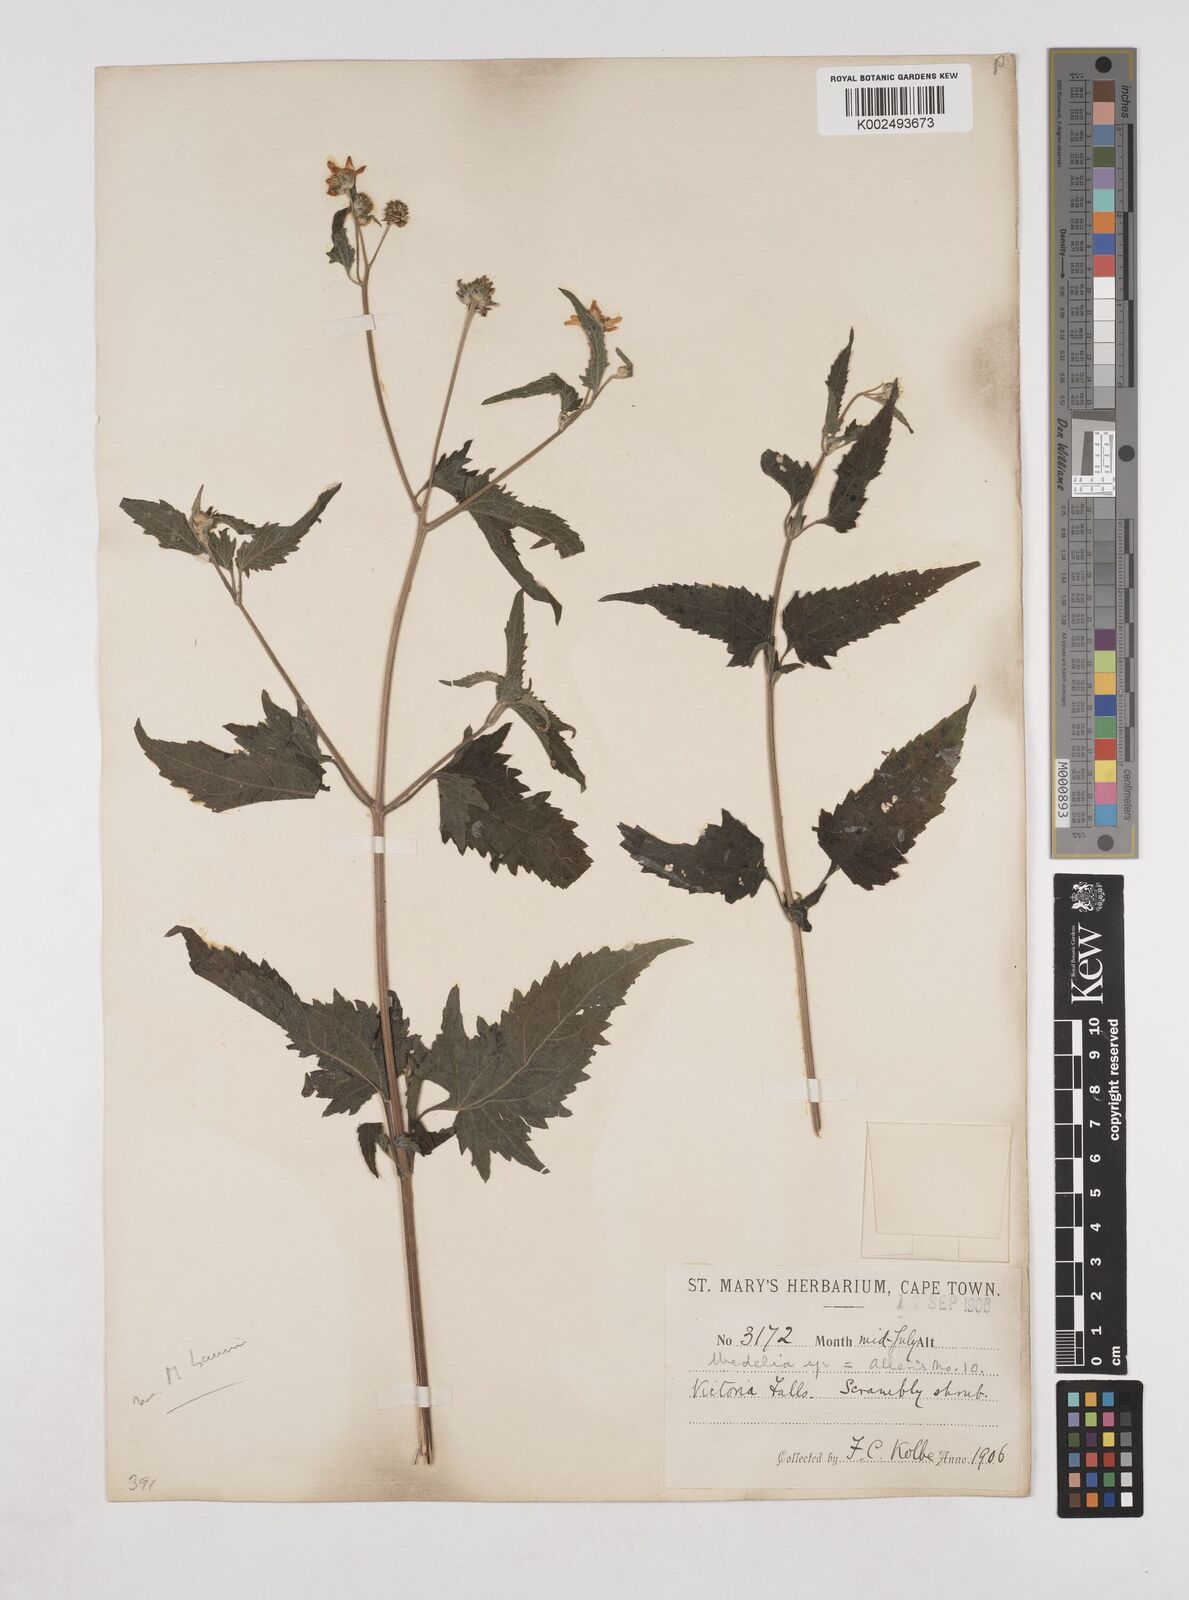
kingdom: Plantae
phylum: Tracheophyta
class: Magnoliopsida
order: Asterales
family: Asteraceae
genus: Lipotriche
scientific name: Lipotriche marlothiana
